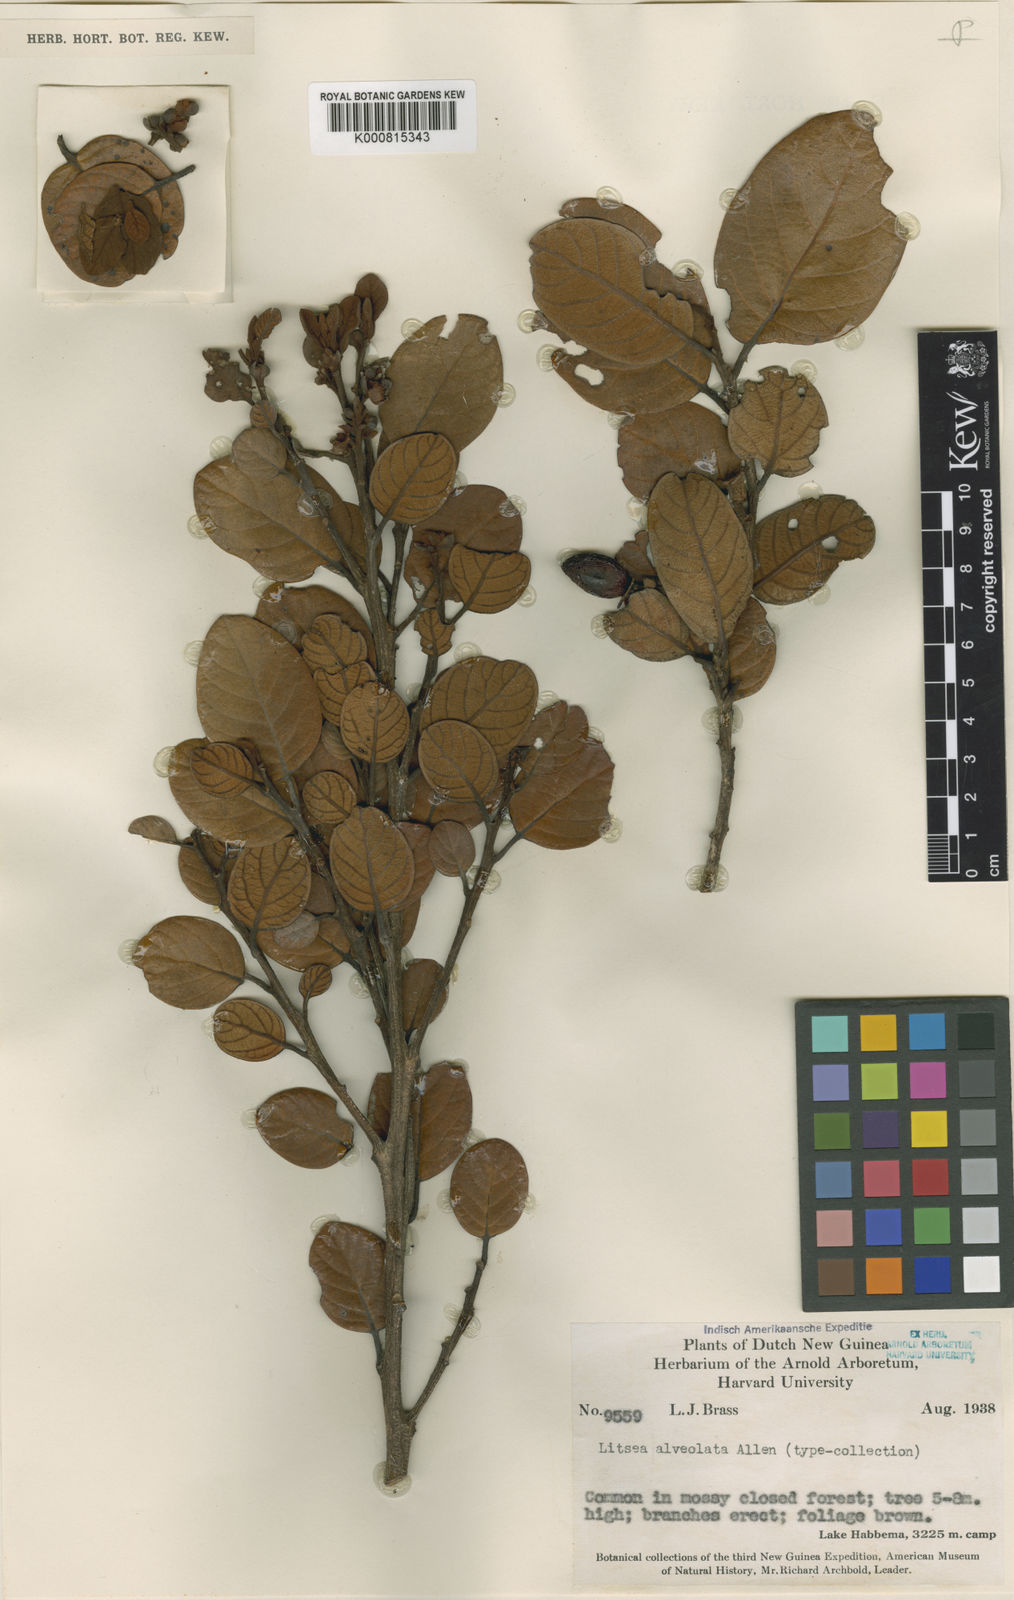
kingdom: Plantae
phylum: Tracheophyta
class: Magnoliopsida
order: Laurales
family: Lauraceae
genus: Litsea
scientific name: Litsea alveolata
